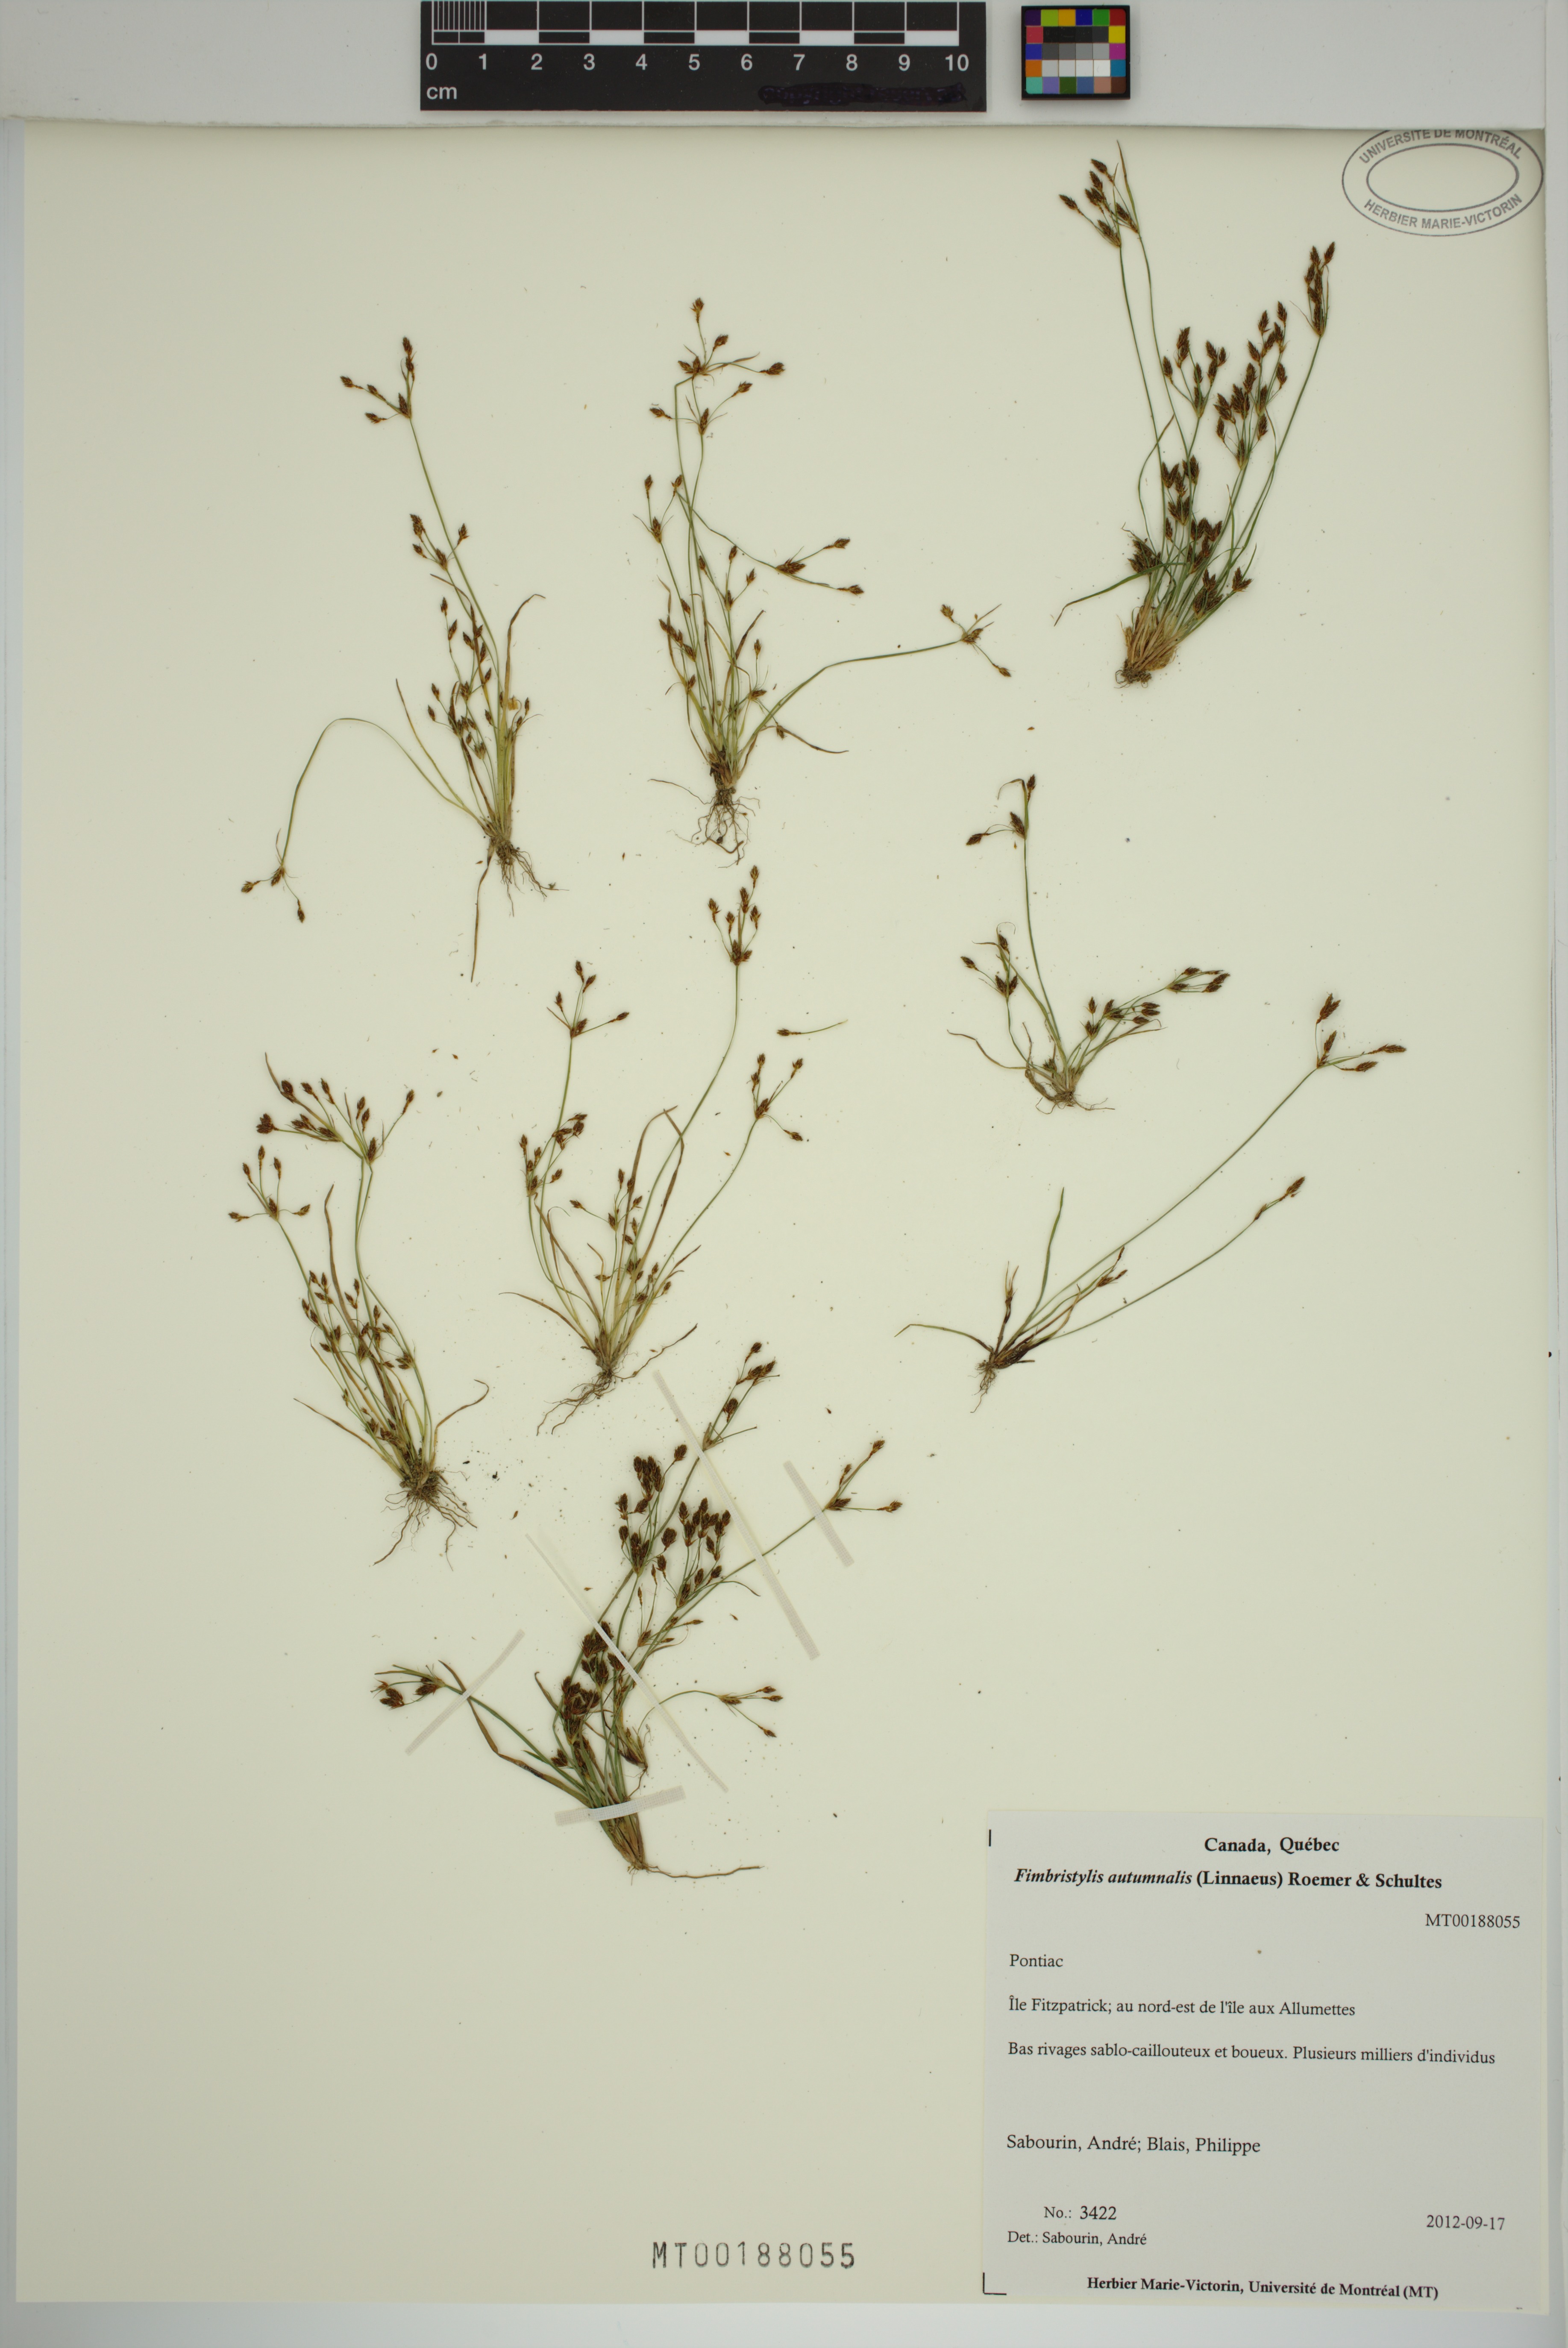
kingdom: Plantae
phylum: Tracheophyta
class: Liliopsida
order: Poales
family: Cyperaceae
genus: Fimbristylis
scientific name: Fimbristylis autumnalis
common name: Slender fimbristylis
